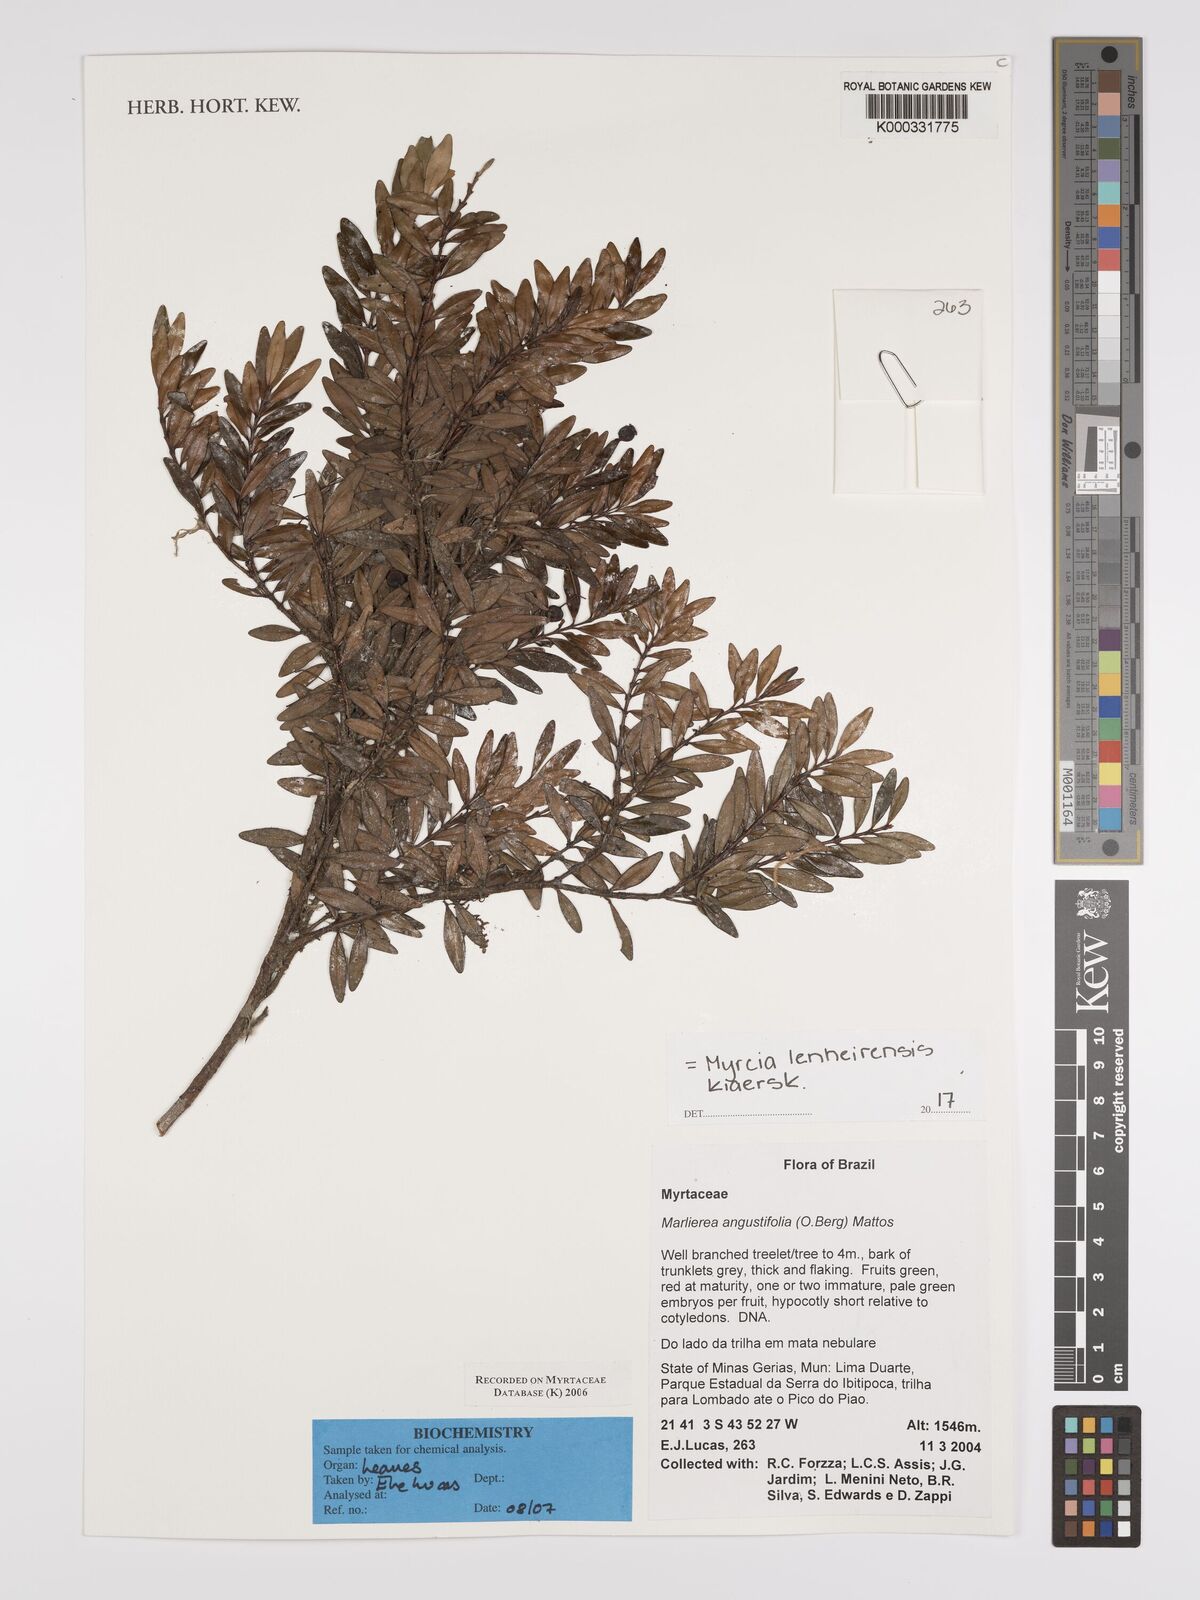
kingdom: Plantae
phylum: Tracheophyta
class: Magnoliopsida
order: Myrtales
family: Myrtaceae
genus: Myrcia
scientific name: Myrcia lenheirensis
